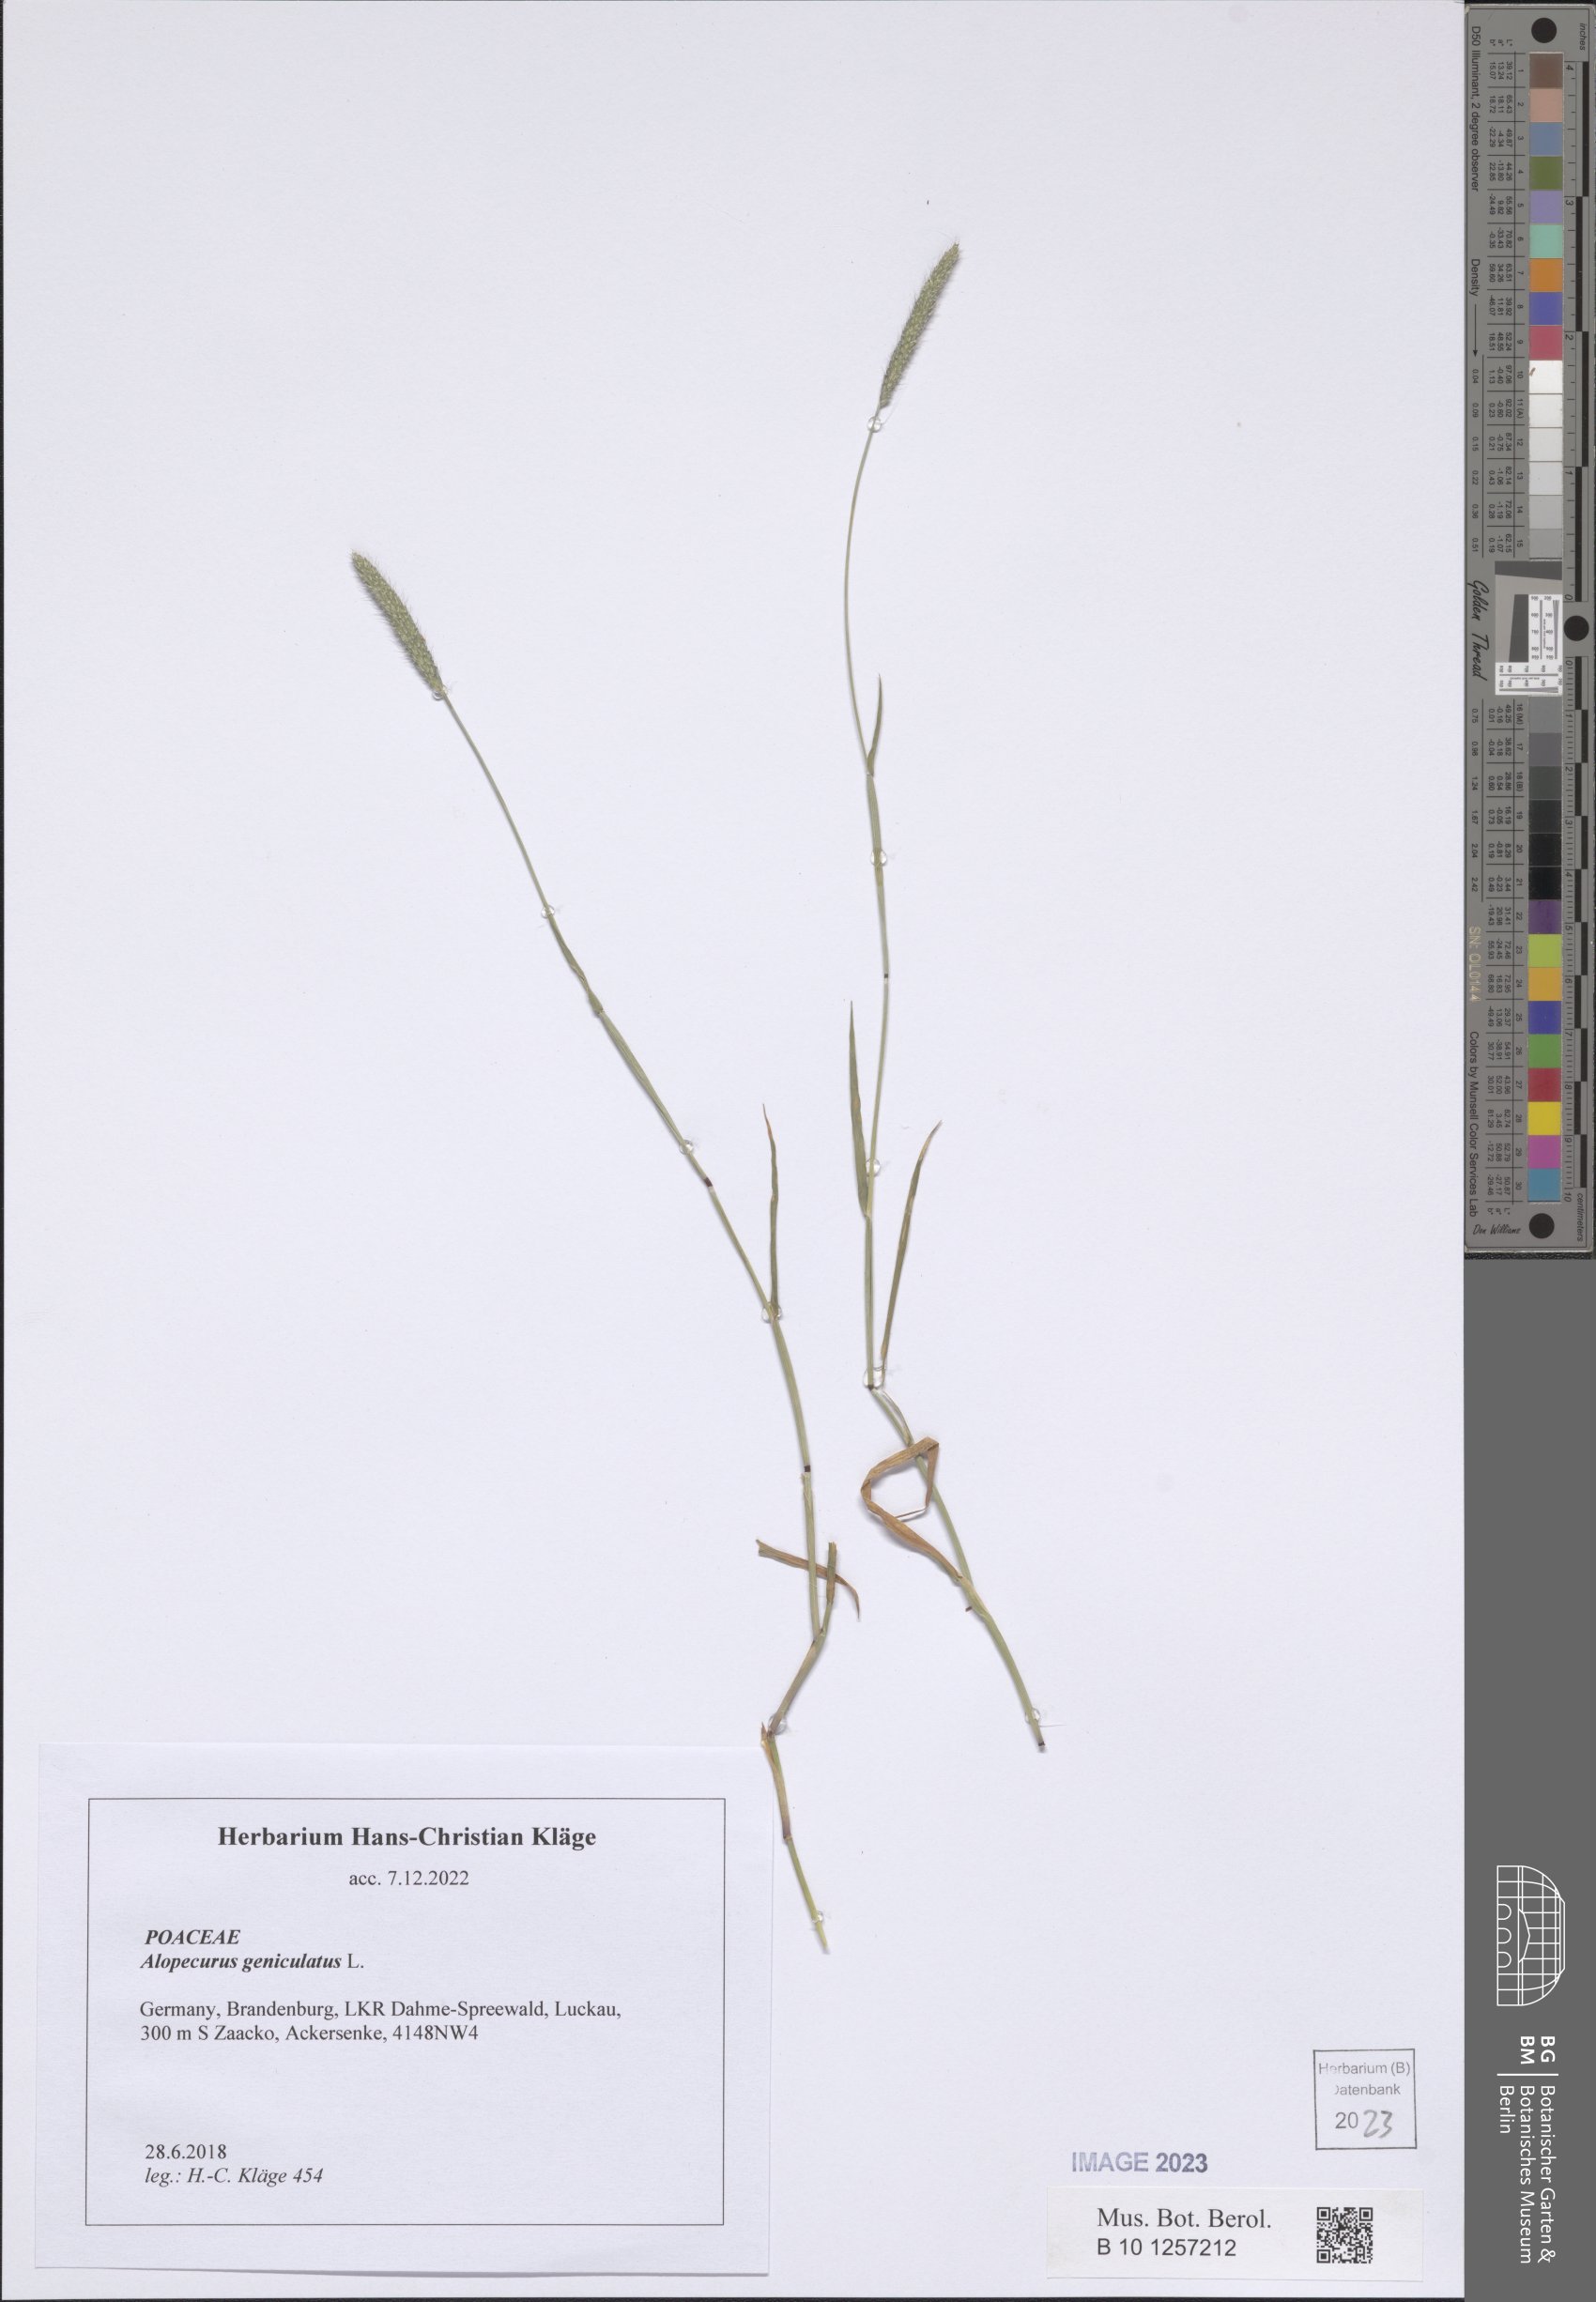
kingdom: Plantae
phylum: Tracheophyta
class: Liliopsida
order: Poales
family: Poaceae
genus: Alopecurus
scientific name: Alopecurus geniculatus
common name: Water foxtail
